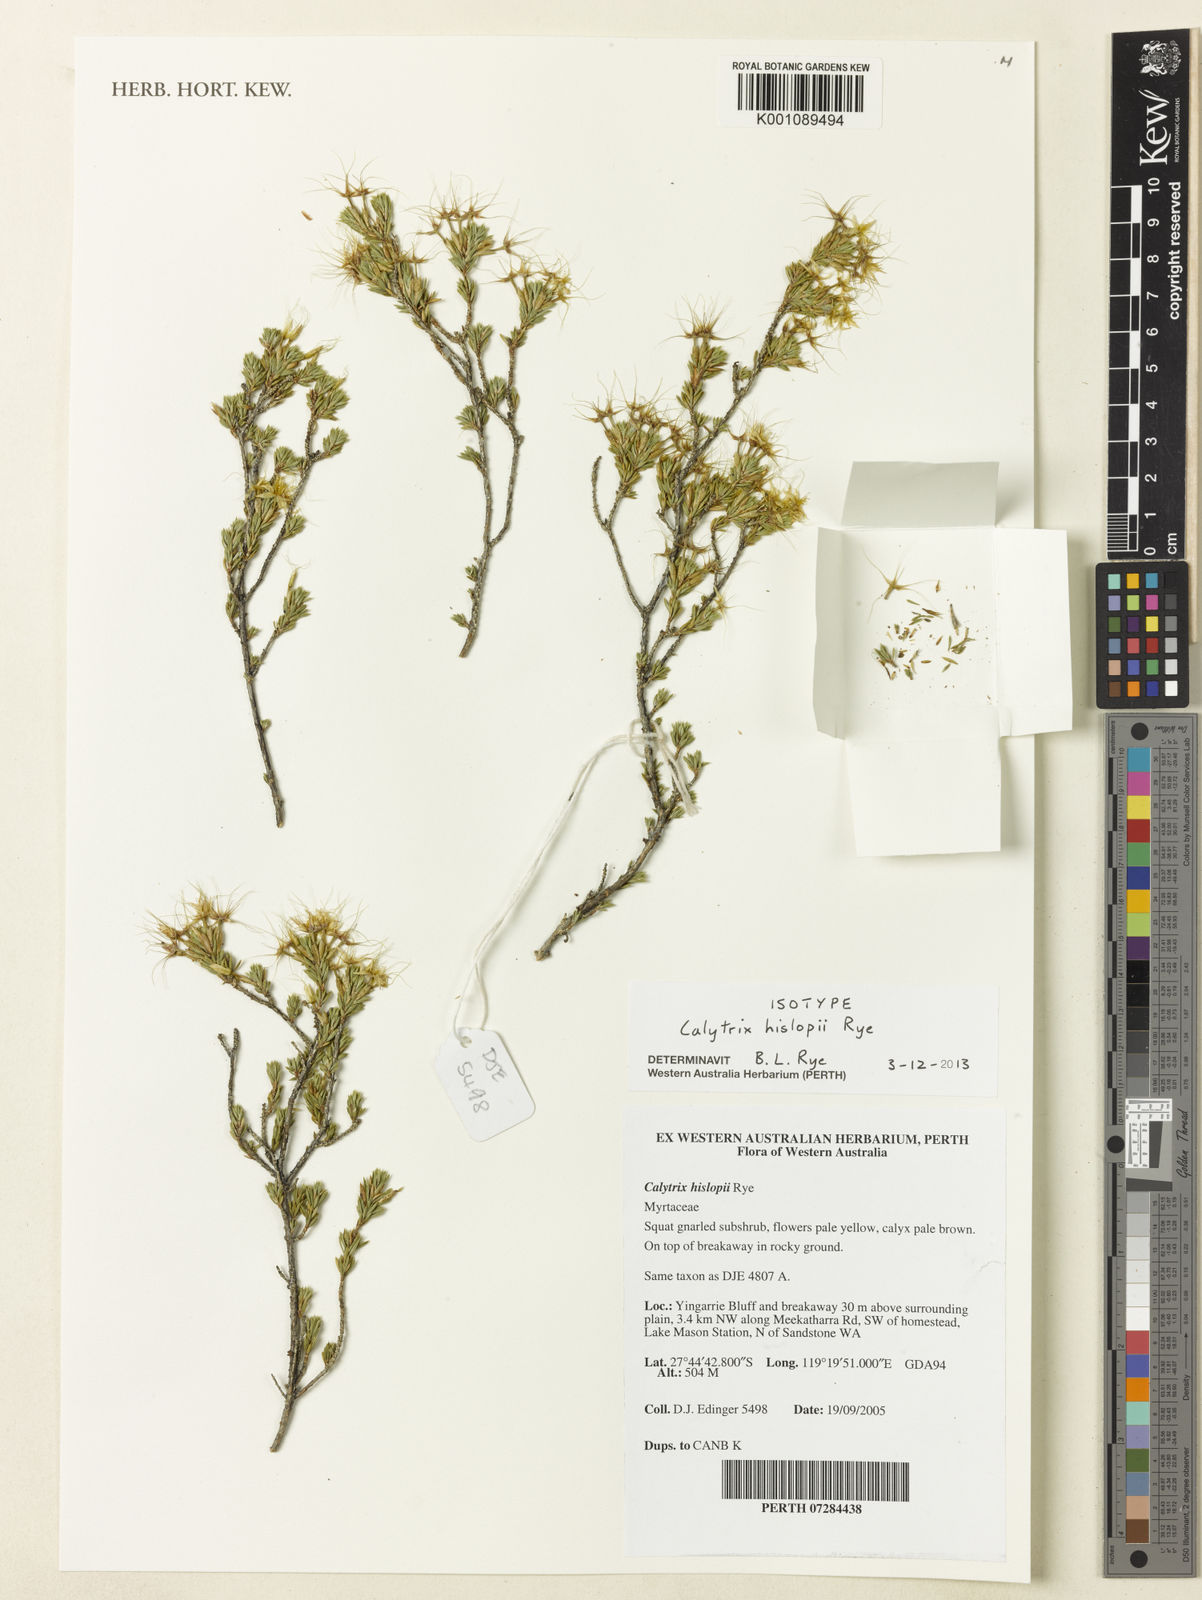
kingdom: Plantae
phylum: Tracheophyta
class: Magnoliopsida
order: Myrtales
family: Myrtaceae
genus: Calytrix
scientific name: Calytrix hislopii
